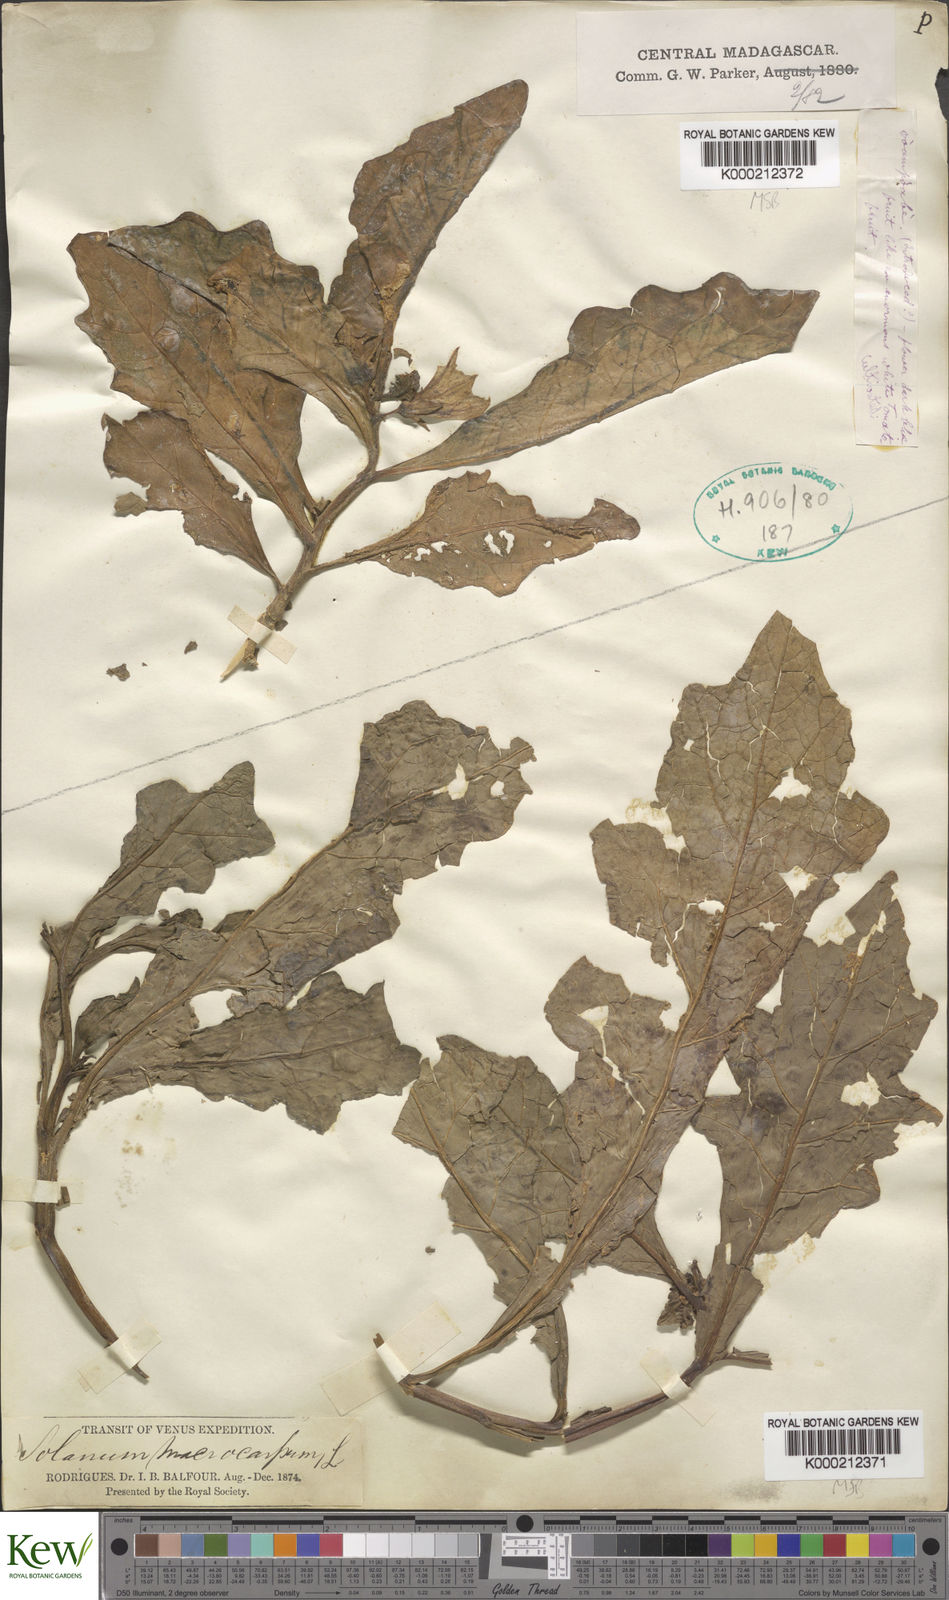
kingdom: Plantae
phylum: Tracheophyta
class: Magnoliopsida
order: Solanales
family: Solanaceae
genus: Solanum
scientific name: Solanum macrocarpon
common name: African eggplant
